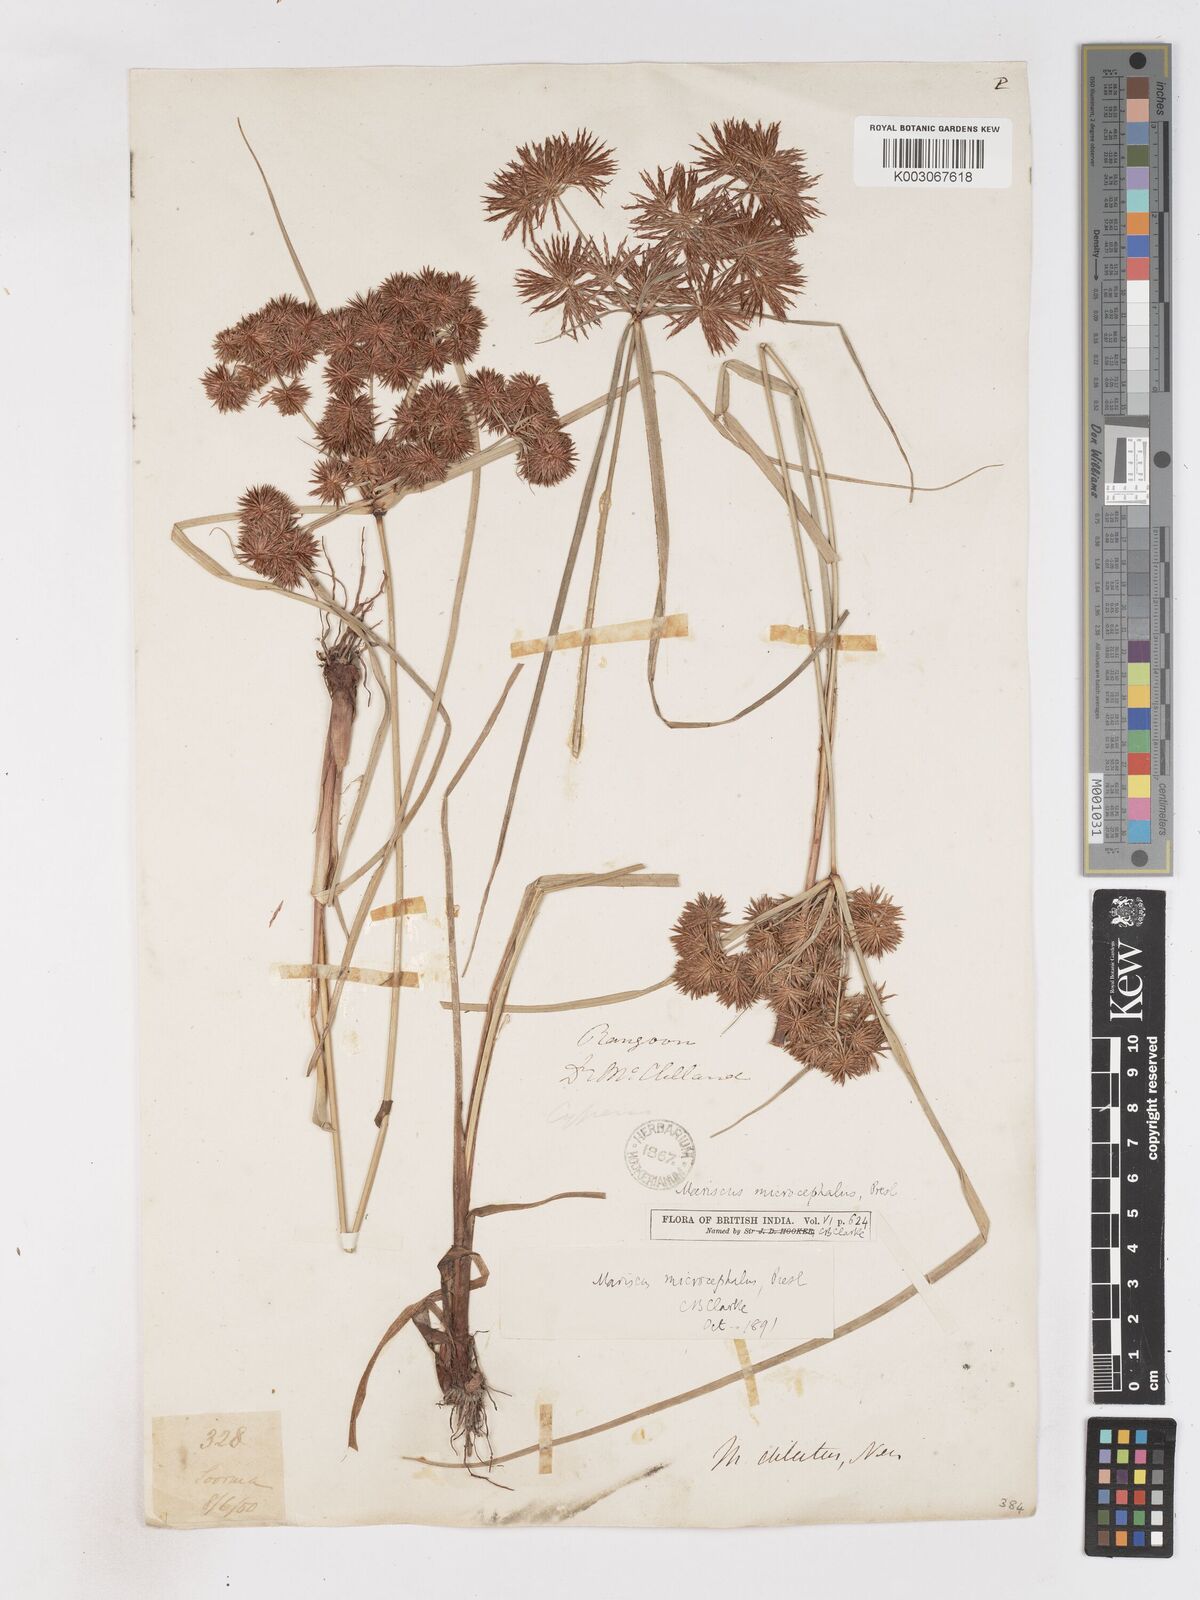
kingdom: Plantae
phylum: Tracheophyta
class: Liliopsida
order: Poales
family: Cyperaceae
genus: Cyperus
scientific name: Cyperus
